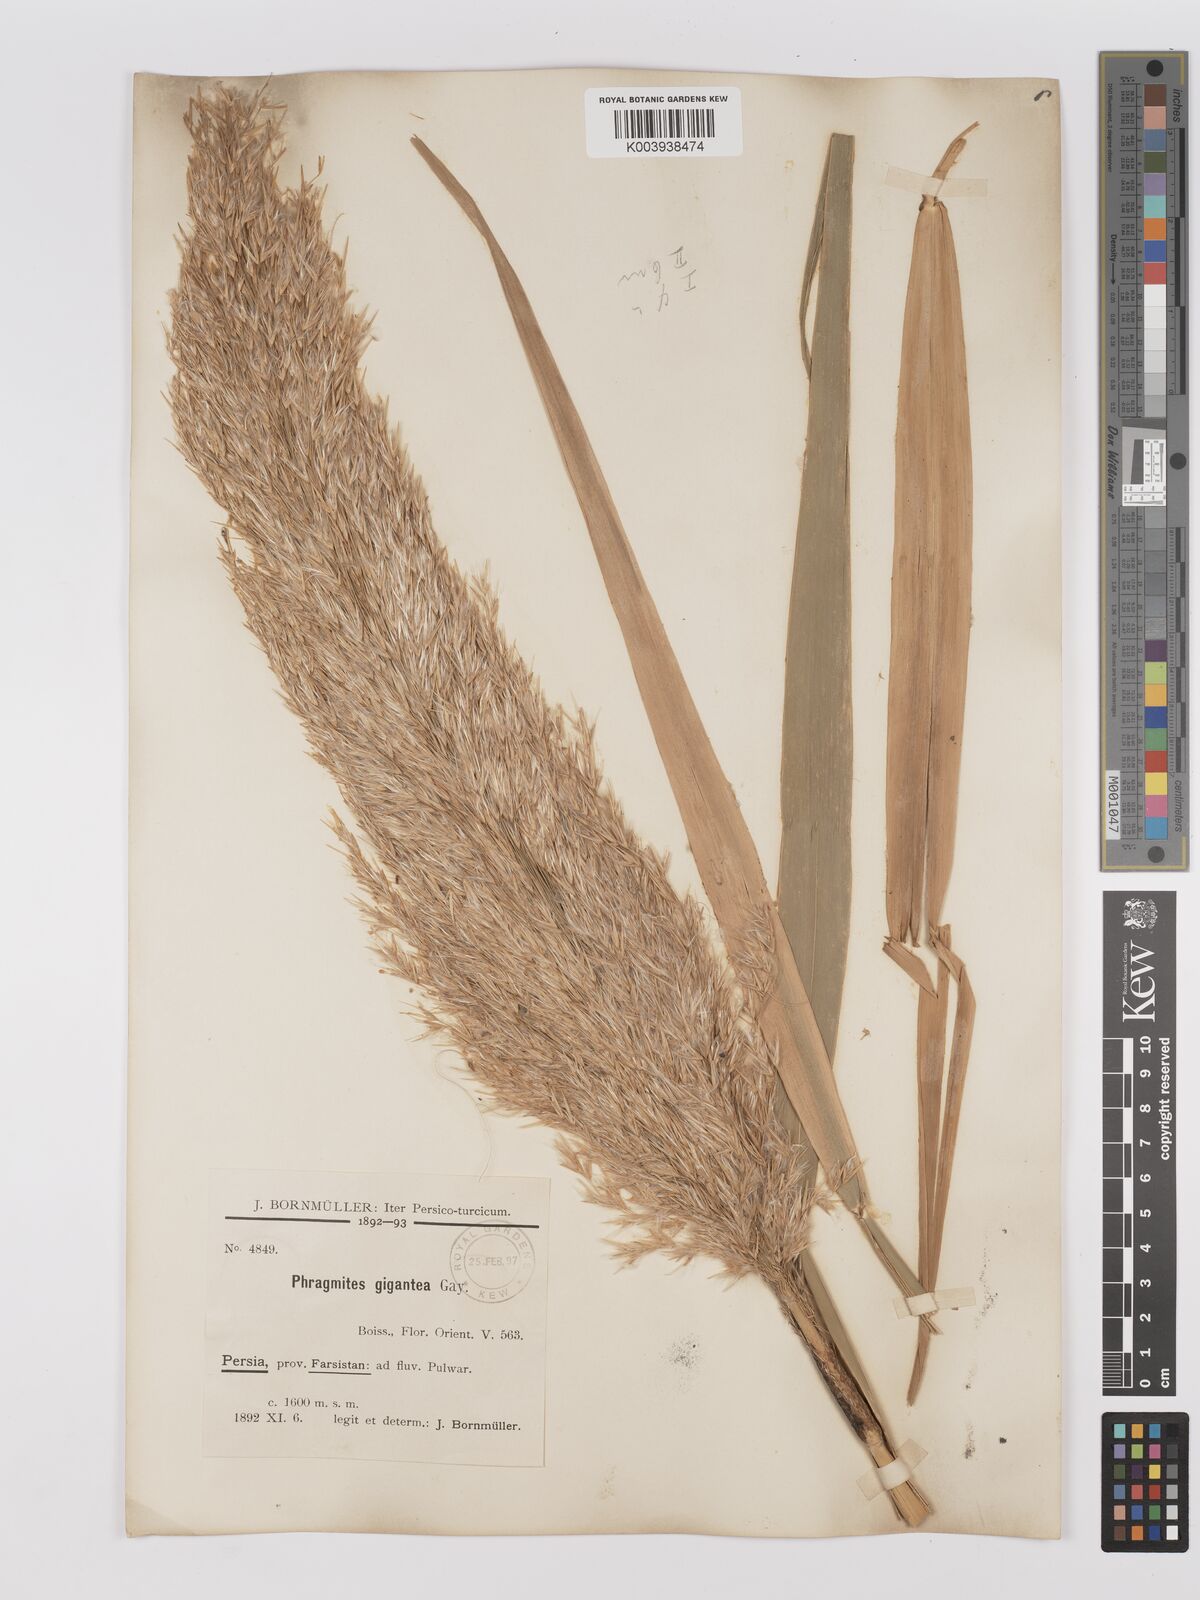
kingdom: Plantae
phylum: Tracheophyta
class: Liliopsida
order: Poales
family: Poaceae
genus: Phragmites
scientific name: Phragmites australis
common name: Common reed
